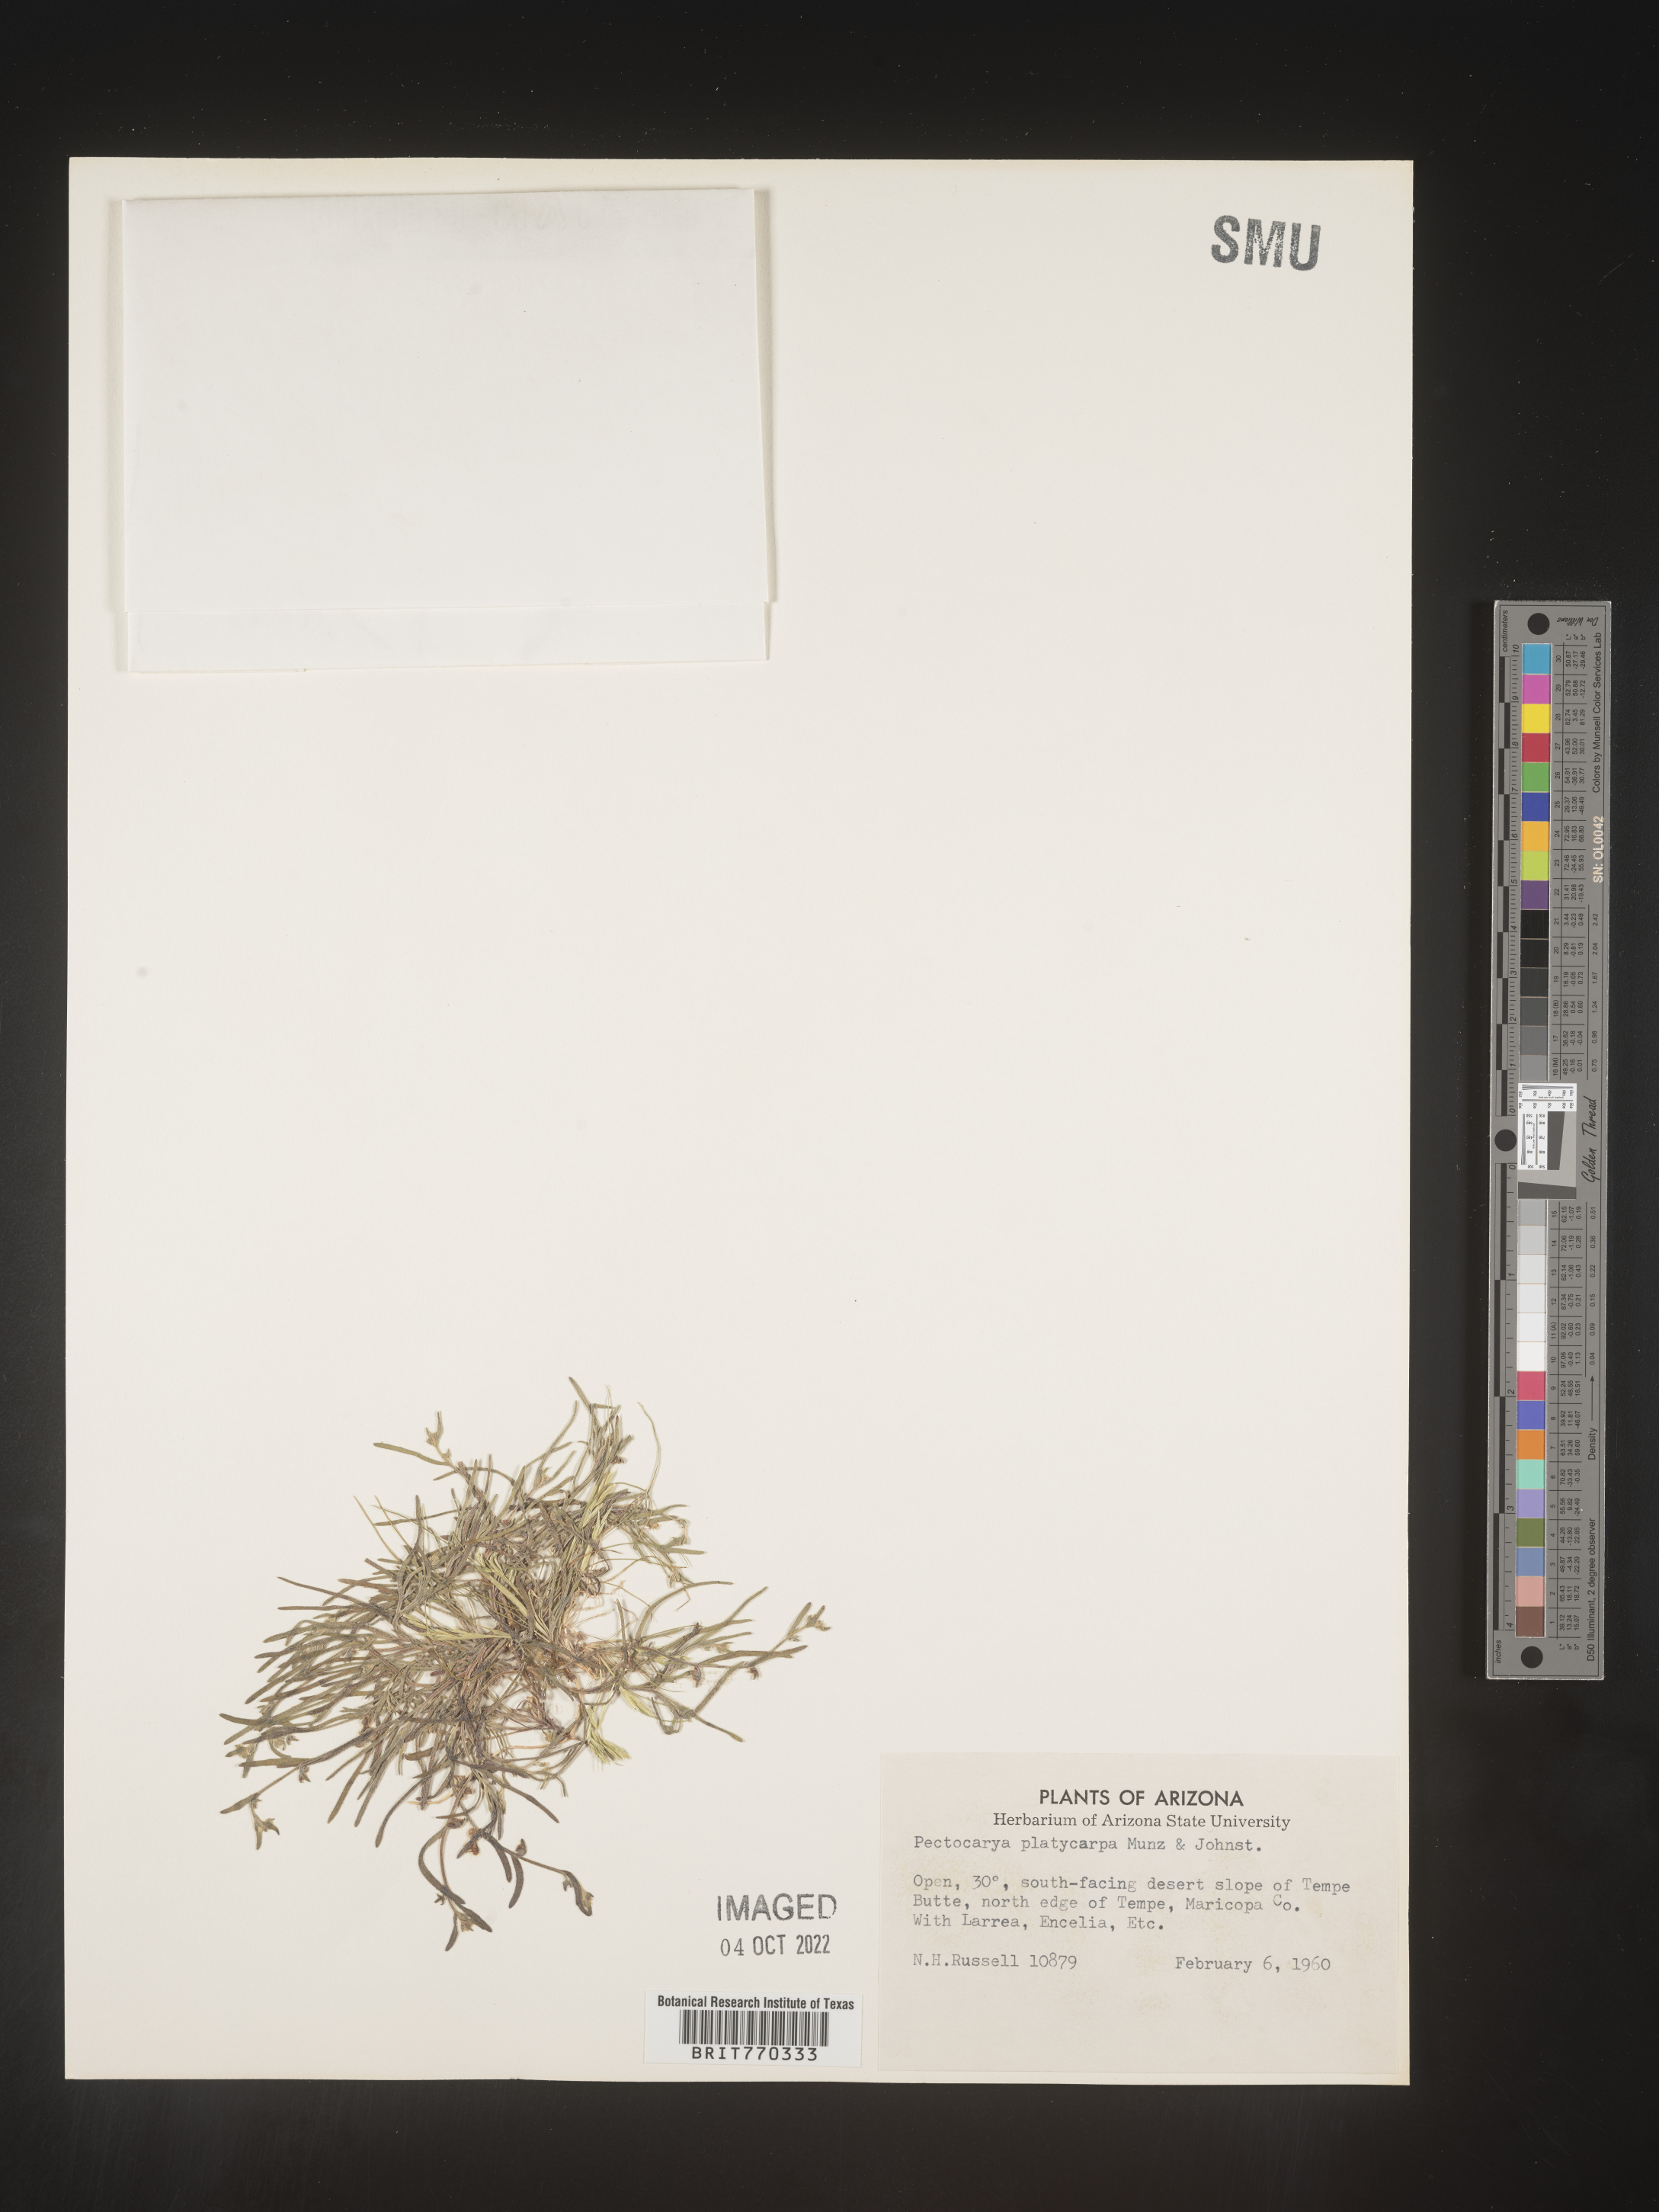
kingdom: Plantae
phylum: Tracheophyta
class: Magnoliopsida
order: Boraginales
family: Boraginaceae
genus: Pectocarya
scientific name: Pectocarya
